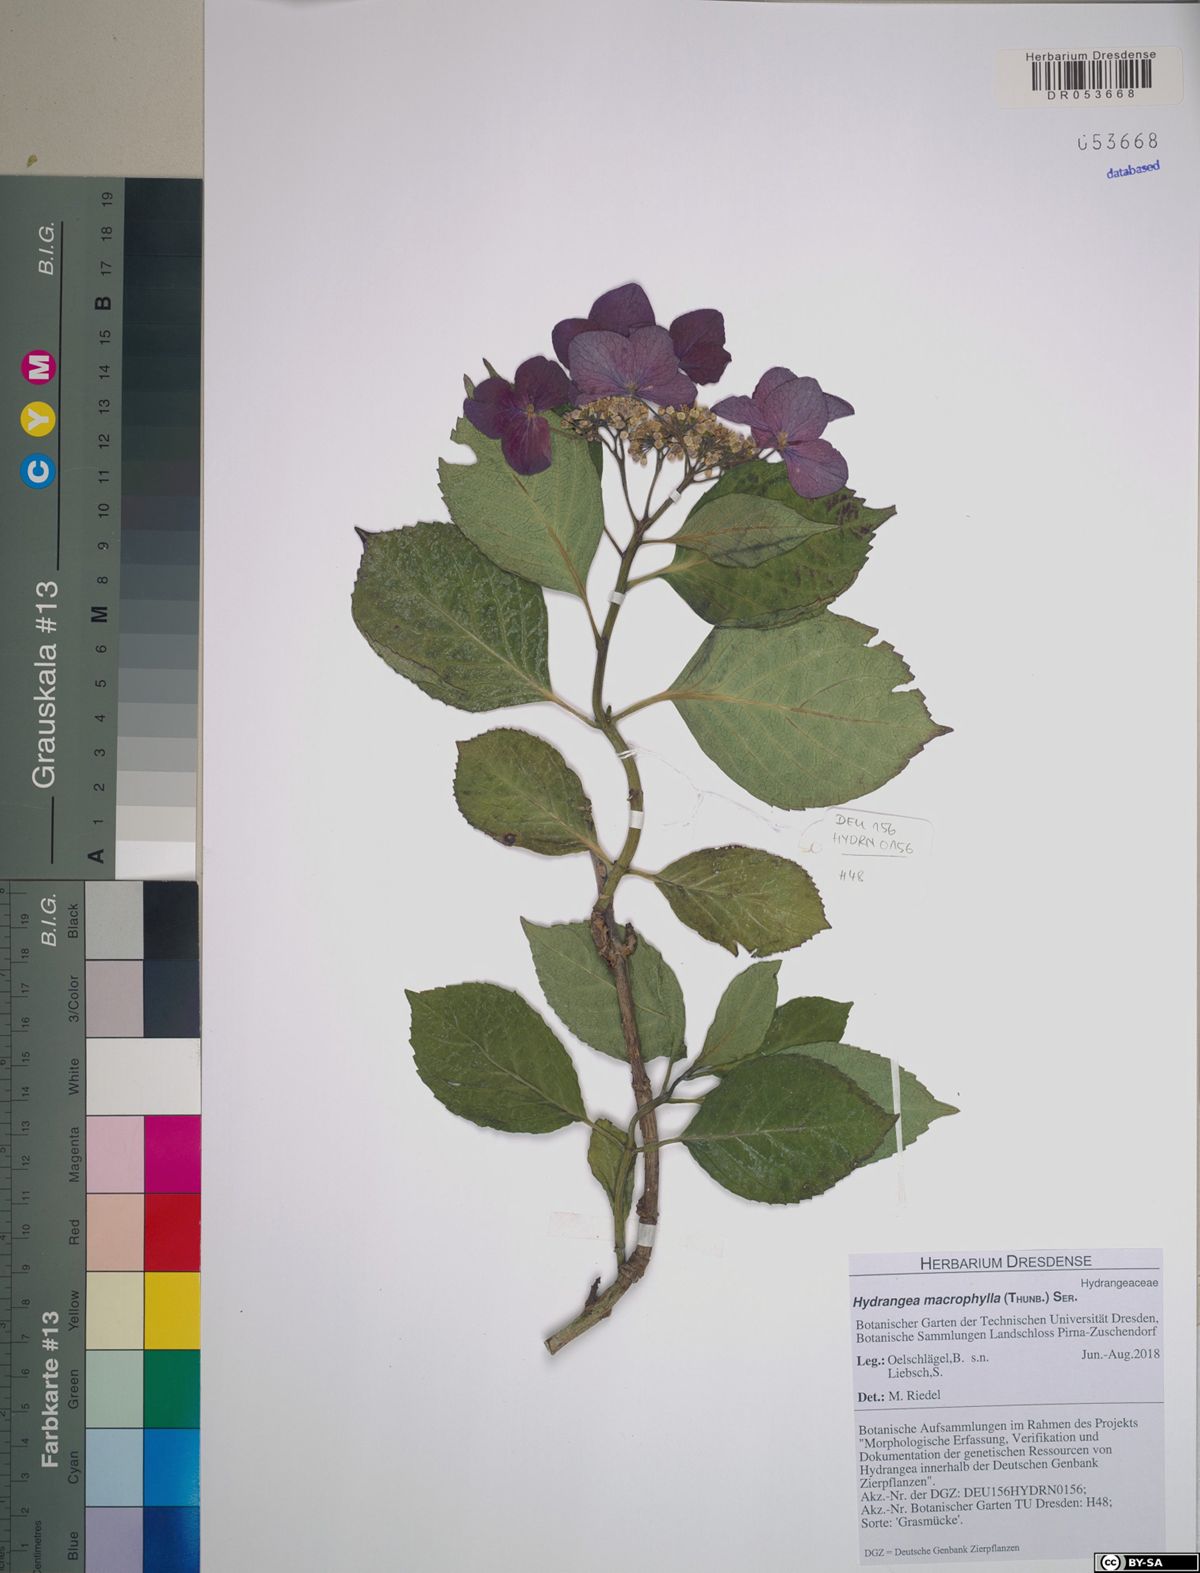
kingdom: Plantae
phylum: Tracheophyta
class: Magnoliopsida
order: Cornales
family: Hydrangeaceae
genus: Hydrangea
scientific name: Hydrangea macrophylla
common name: Hydrangea
